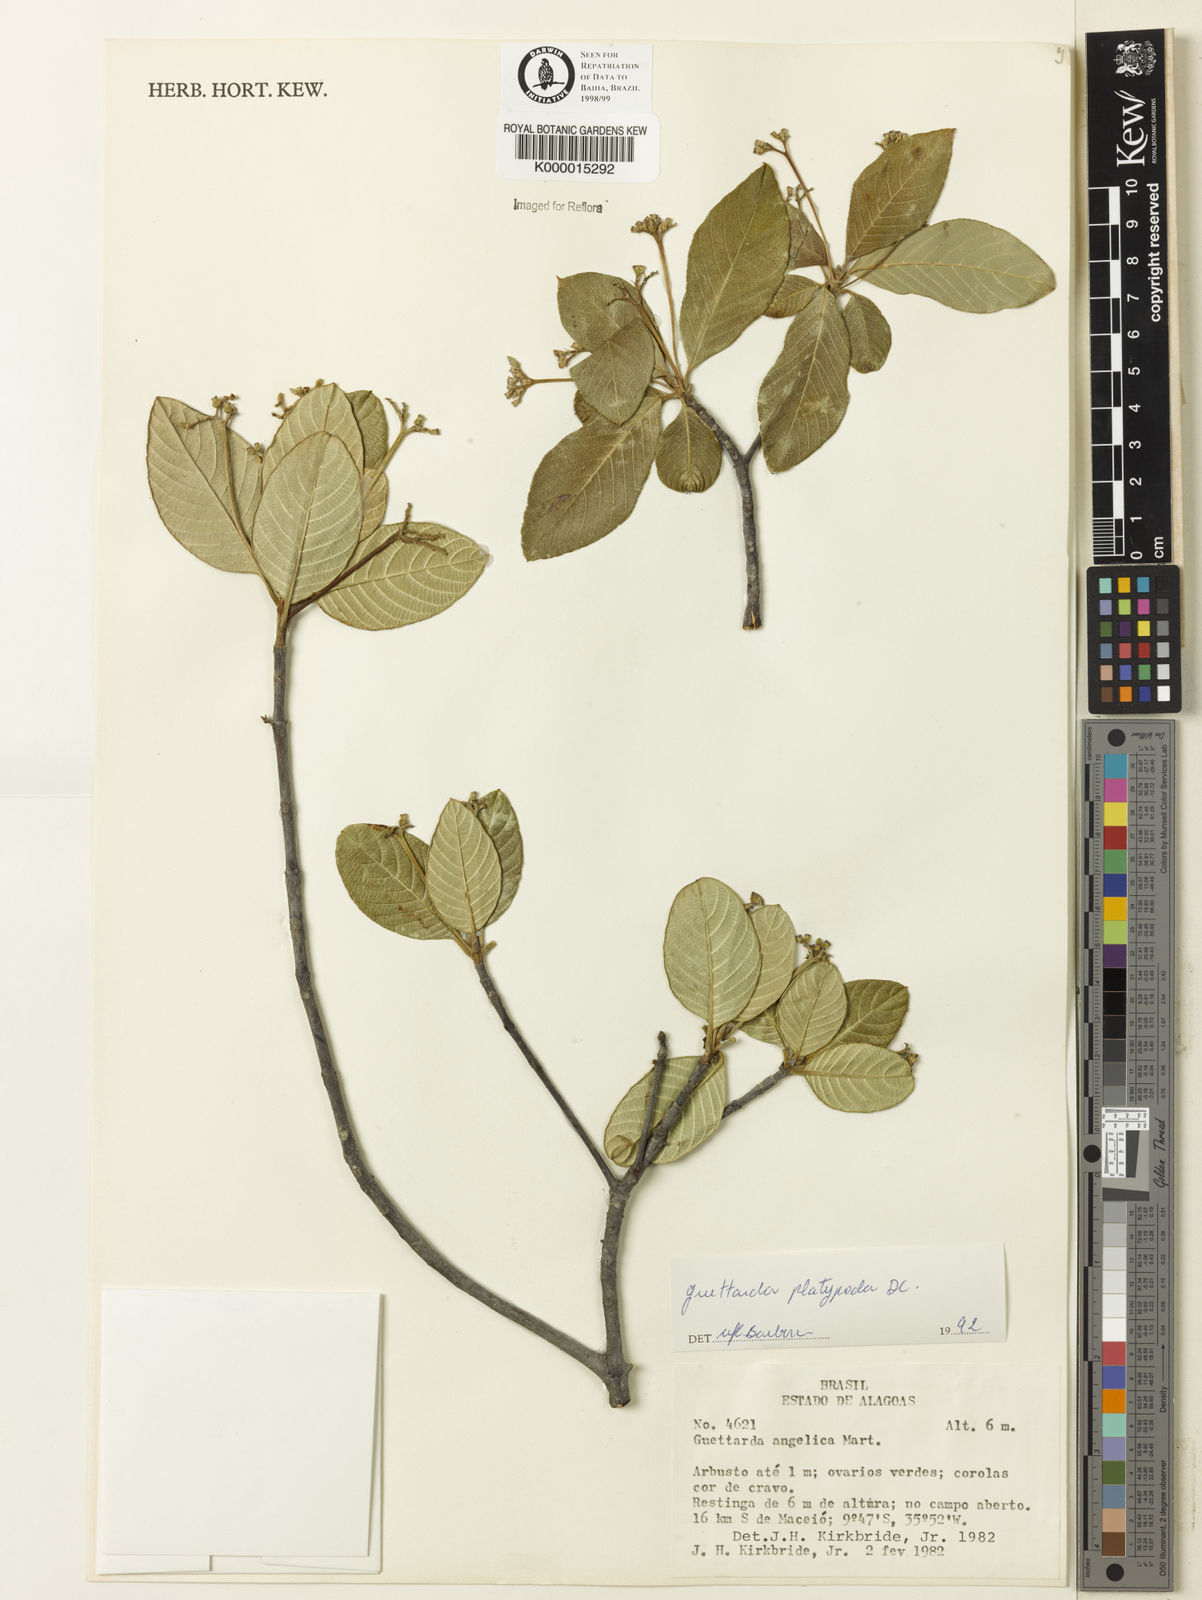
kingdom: Plantae
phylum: Tracheophyta
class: Magnoliopsida
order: Gentianales
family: Rubiaceae
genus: Guettarda
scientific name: Guettarda platypoda
